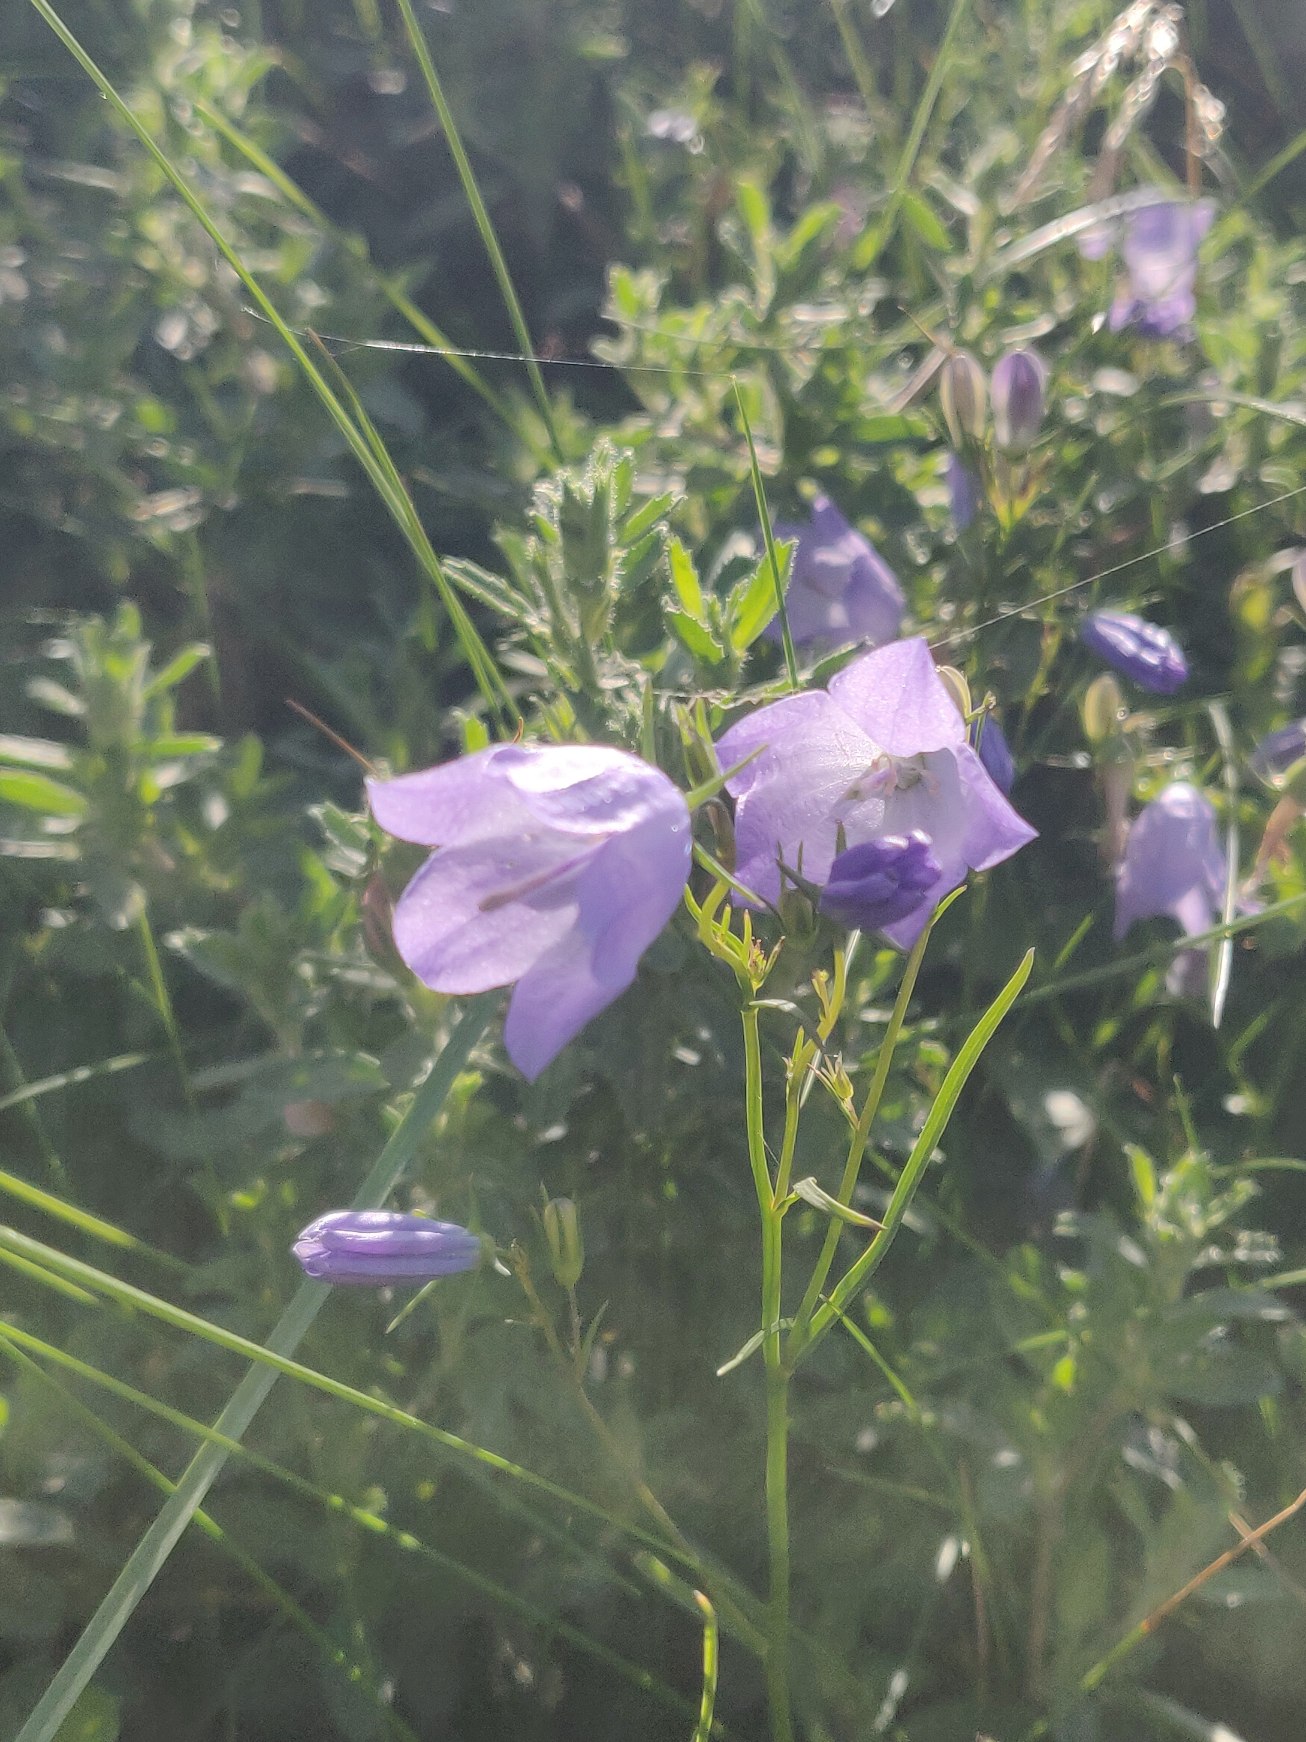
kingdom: Plantae
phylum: Tracheophyta
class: Magnoliopsida
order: Asterales
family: Campanulaceae
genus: Campanula
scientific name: Campanula rotundifolia
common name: Liden klokke
